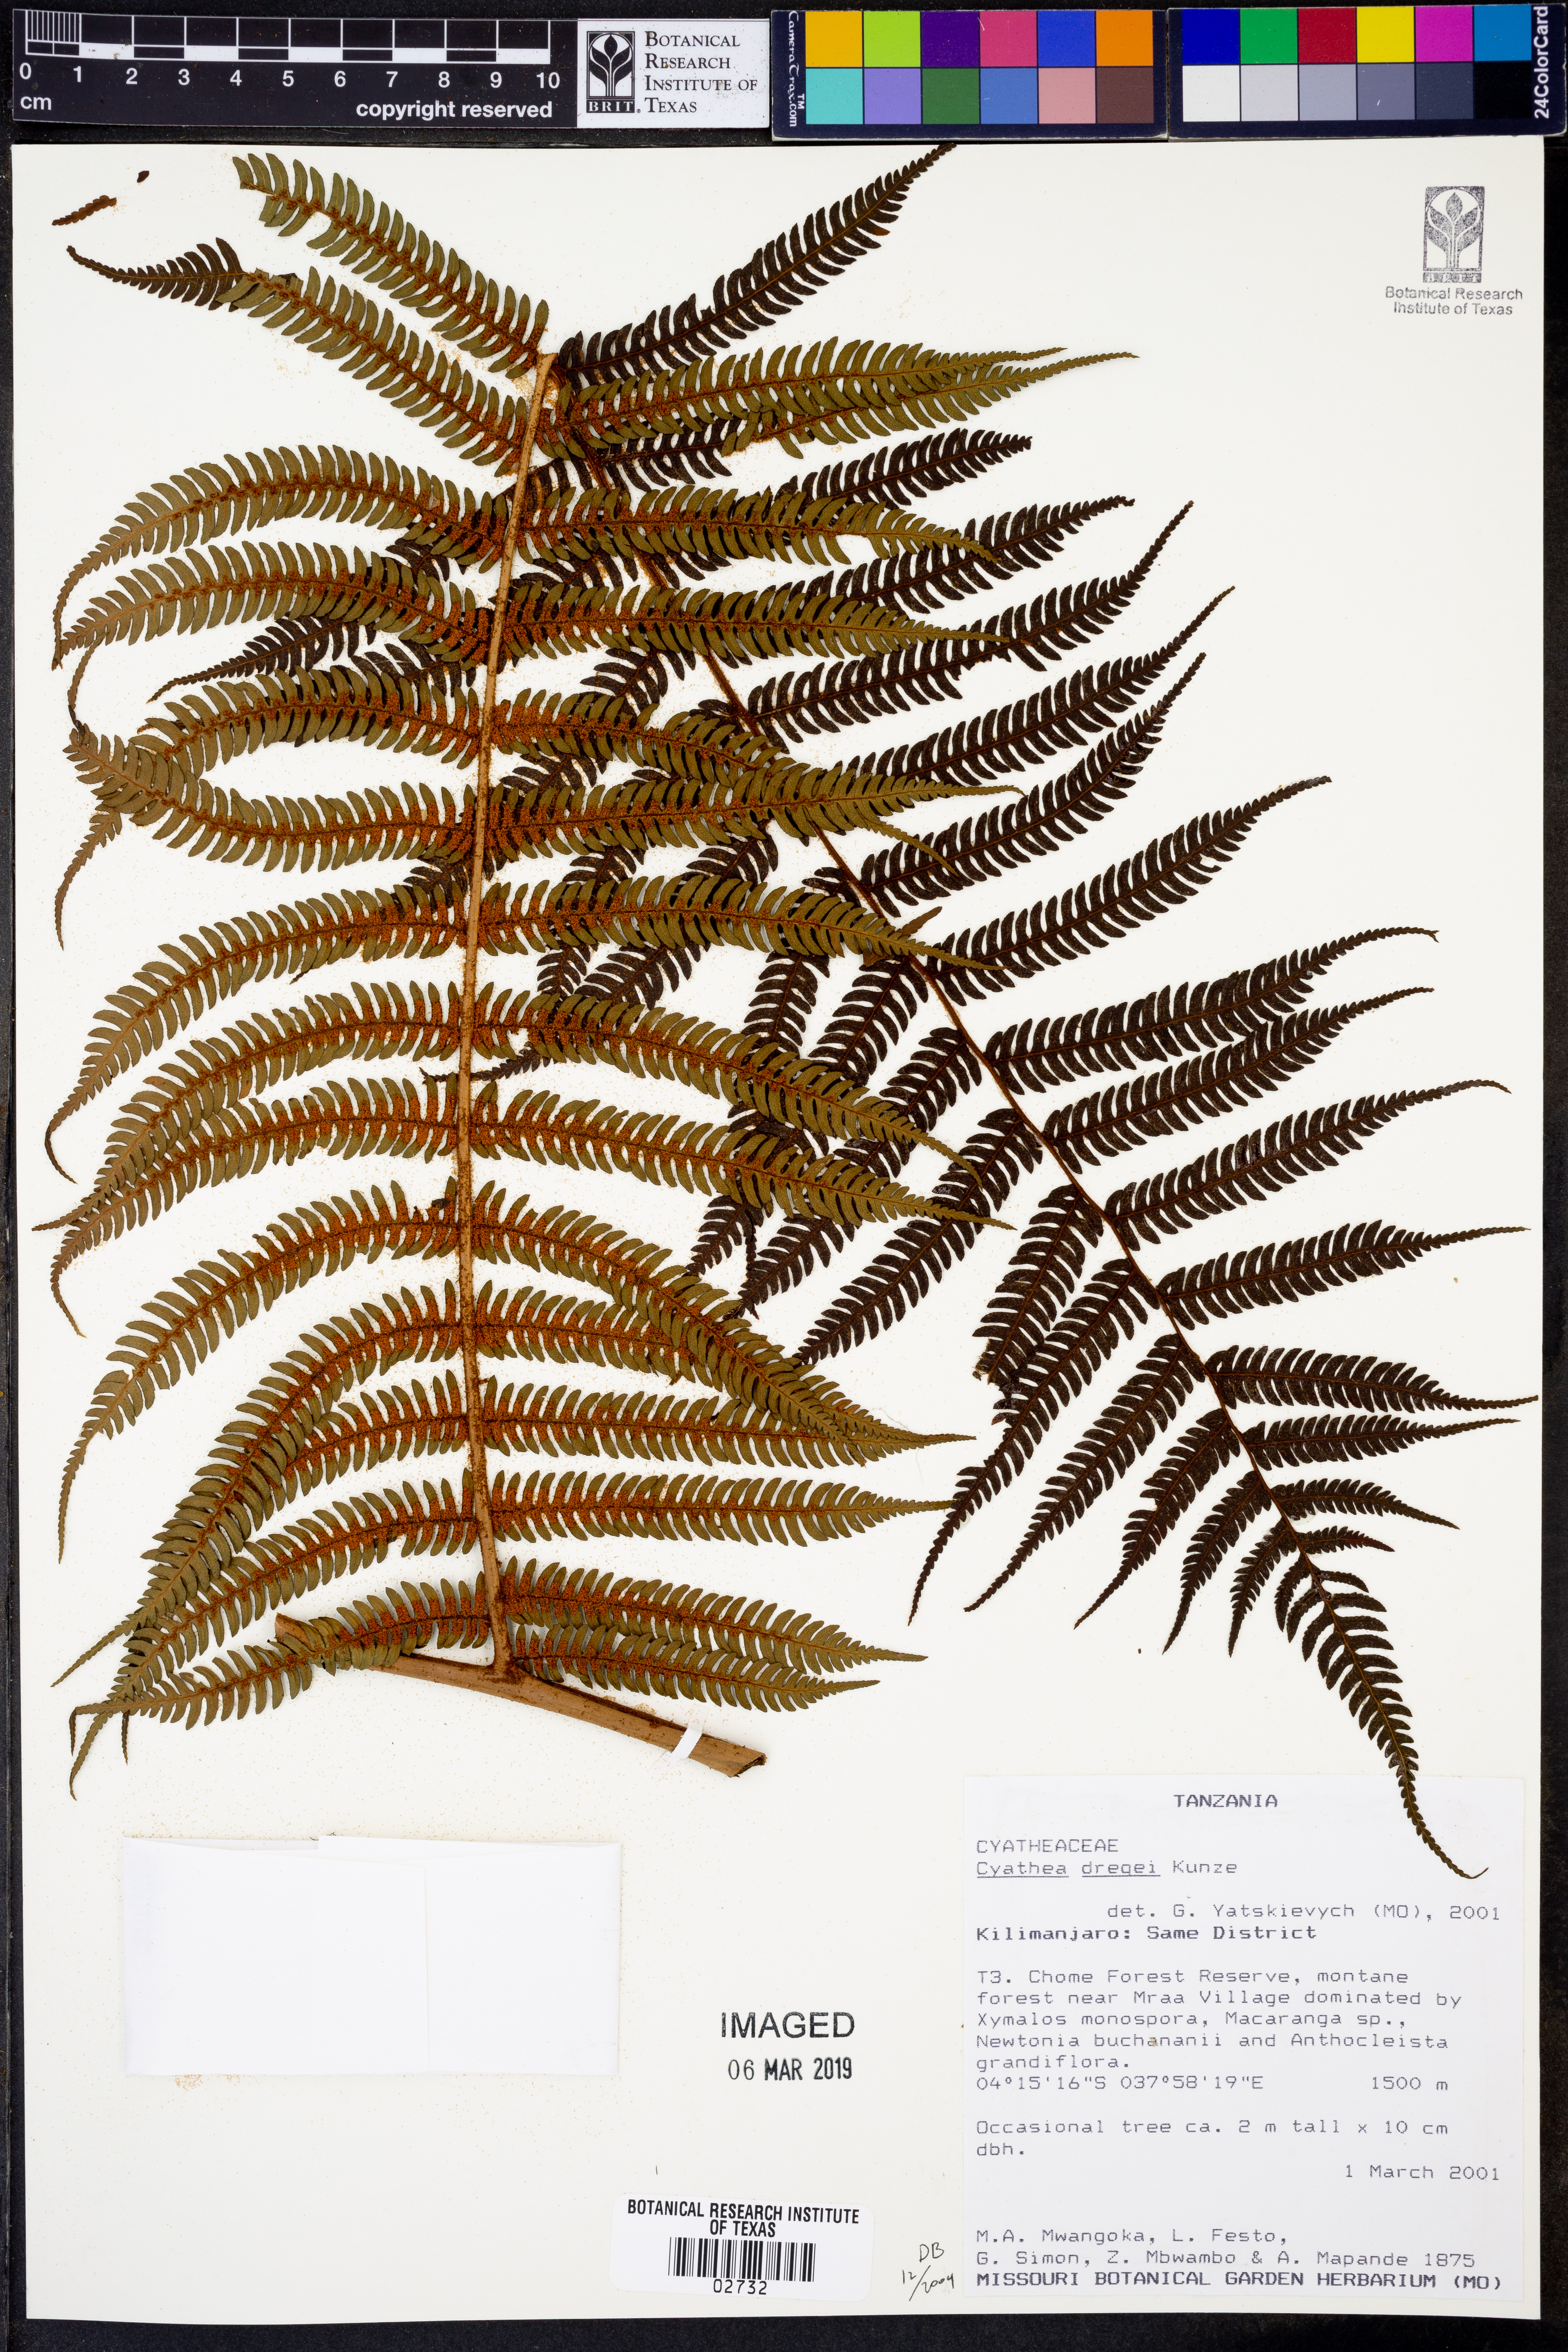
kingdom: Plantae
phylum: Tracheophyta
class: Polypodiopsida
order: Cyatheales
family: Cyatheaceae
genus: Alsophila
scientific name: Alsophila dregei
